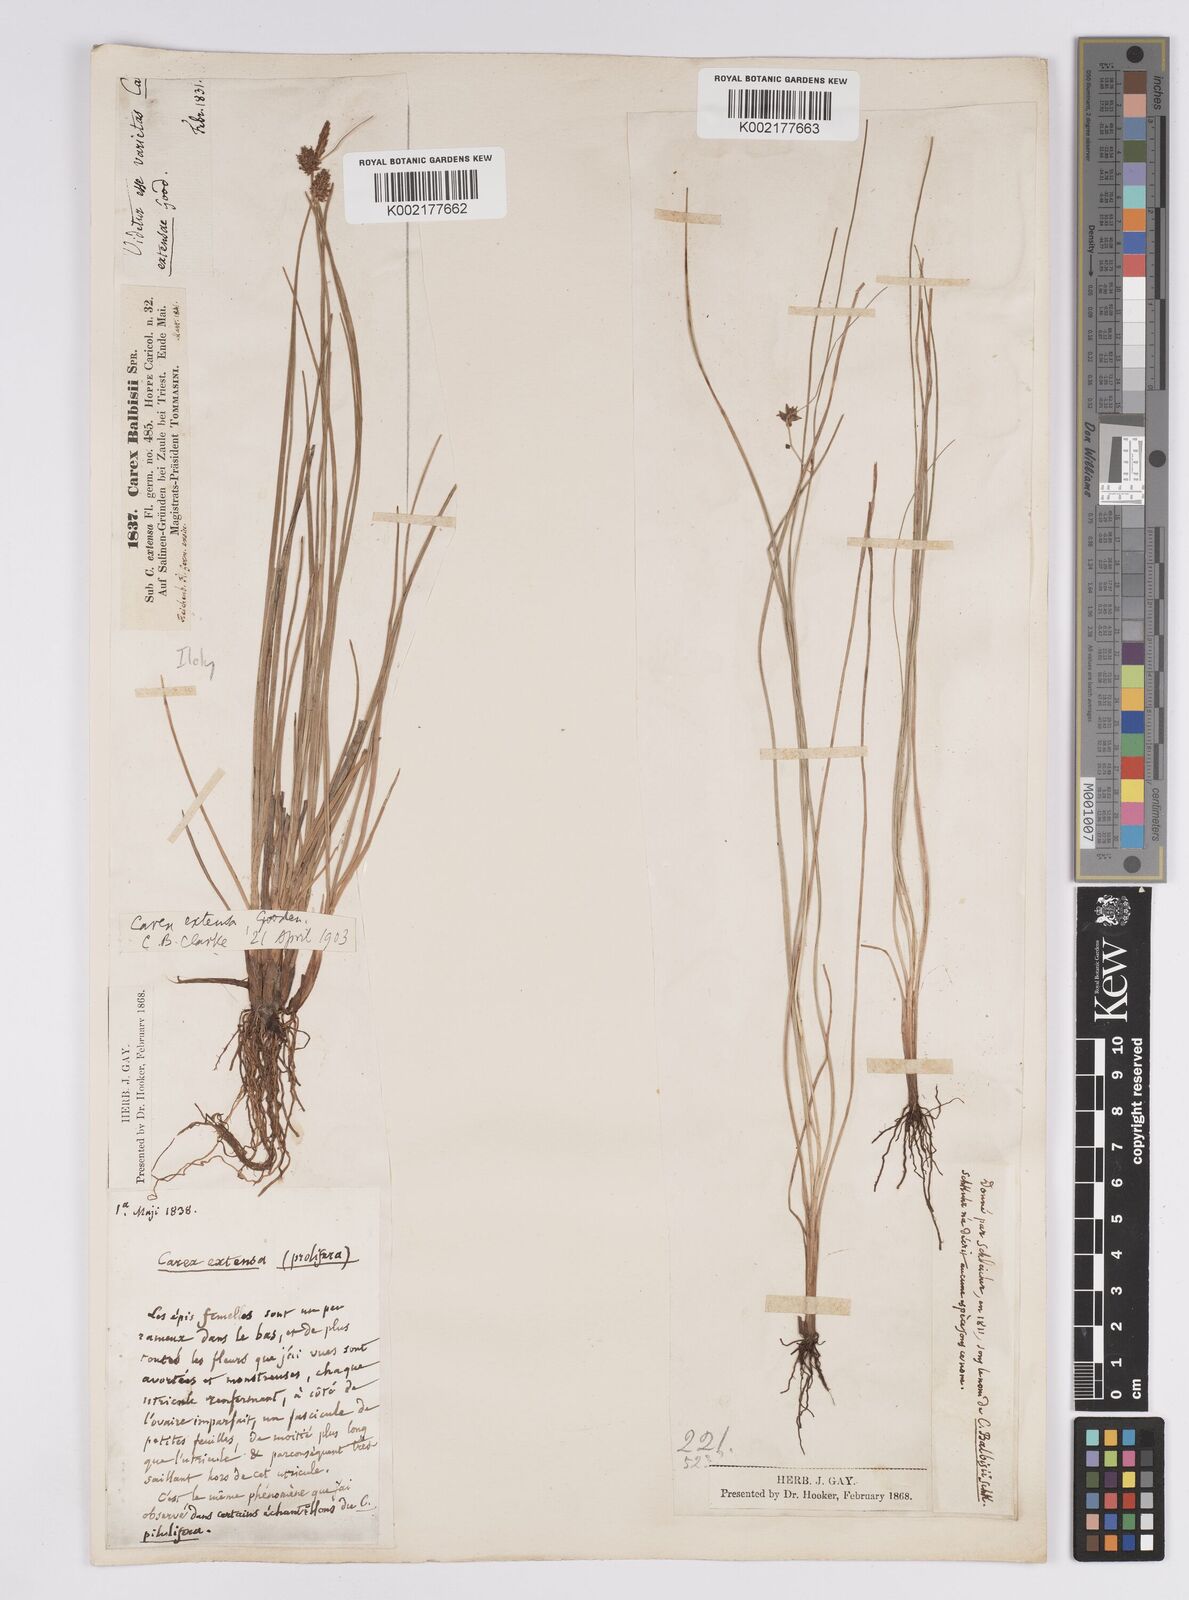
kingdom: Plantae
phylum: Tracheophyta
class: Liliopsida
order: Poales
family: Cyperaceae
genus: Carex
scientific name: Carex extensa
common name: Long-bracted sedge
